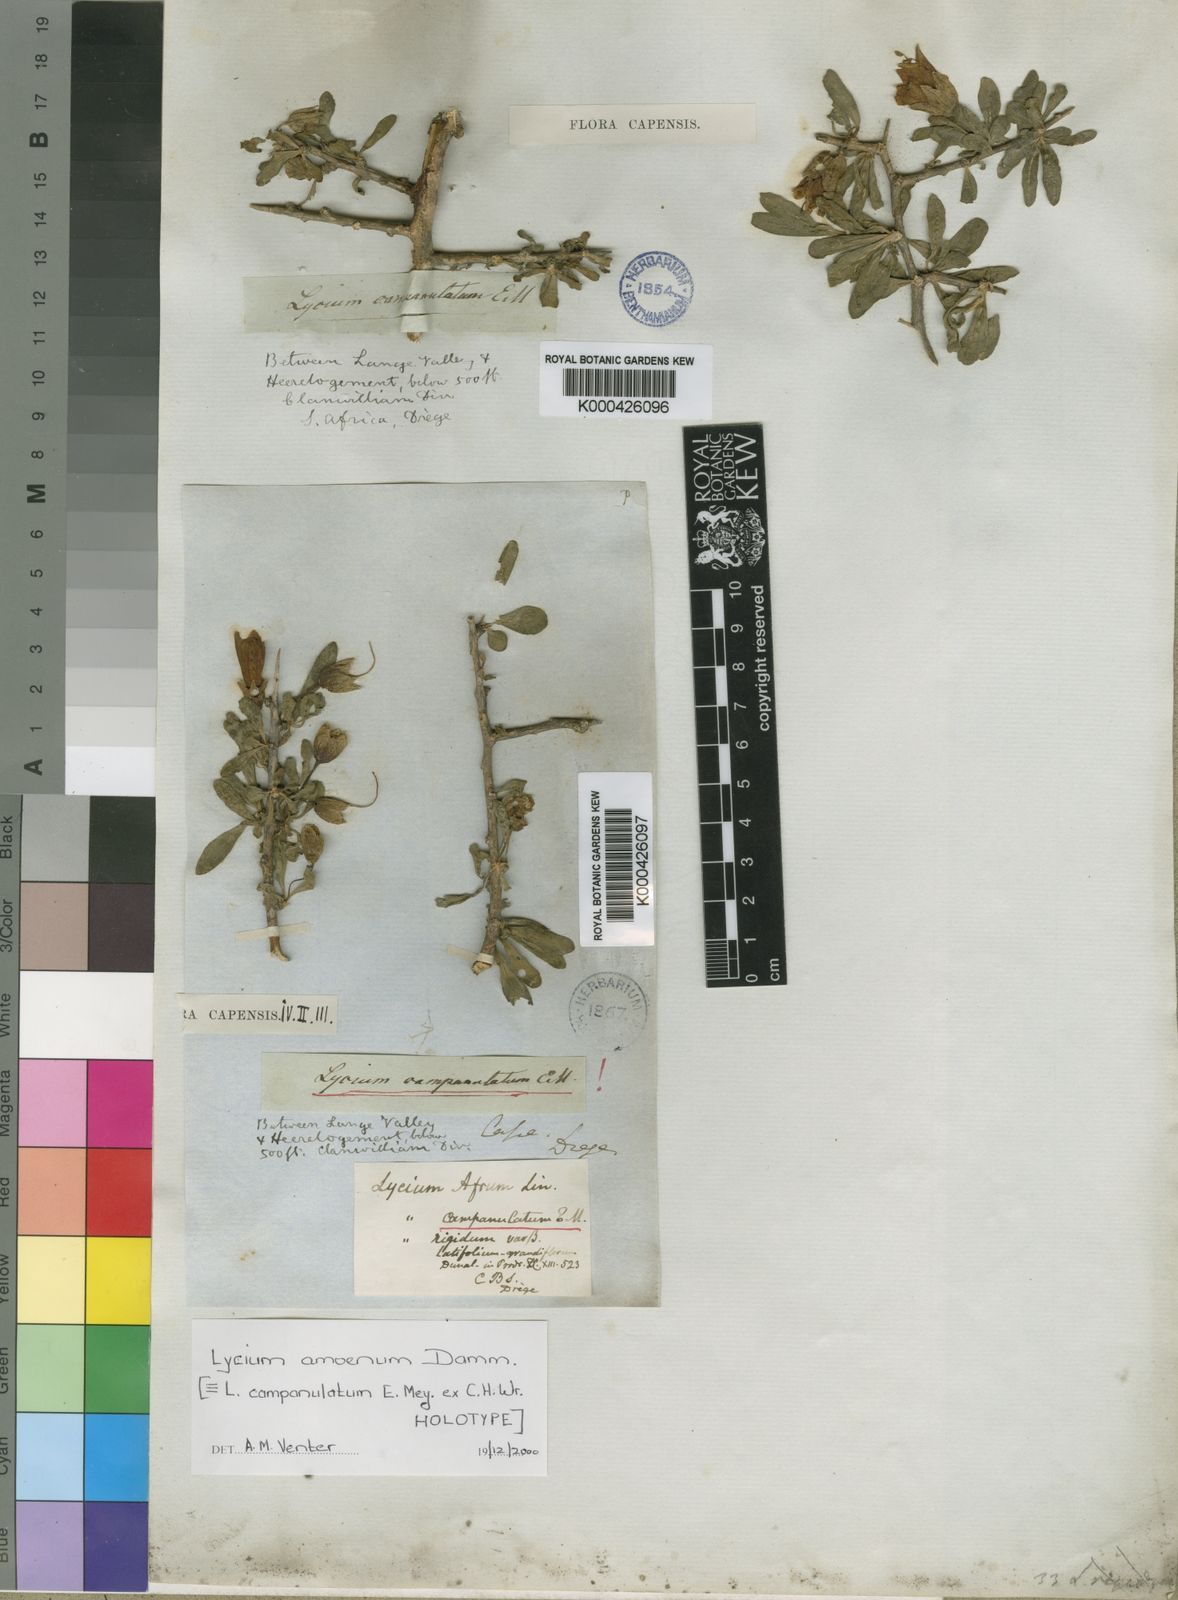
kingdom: Plantae
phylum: Tracheophyta
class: Magnoliopsida
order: Solanales
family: Solanaceae
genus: Lycium
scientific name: Lycium amoenum
